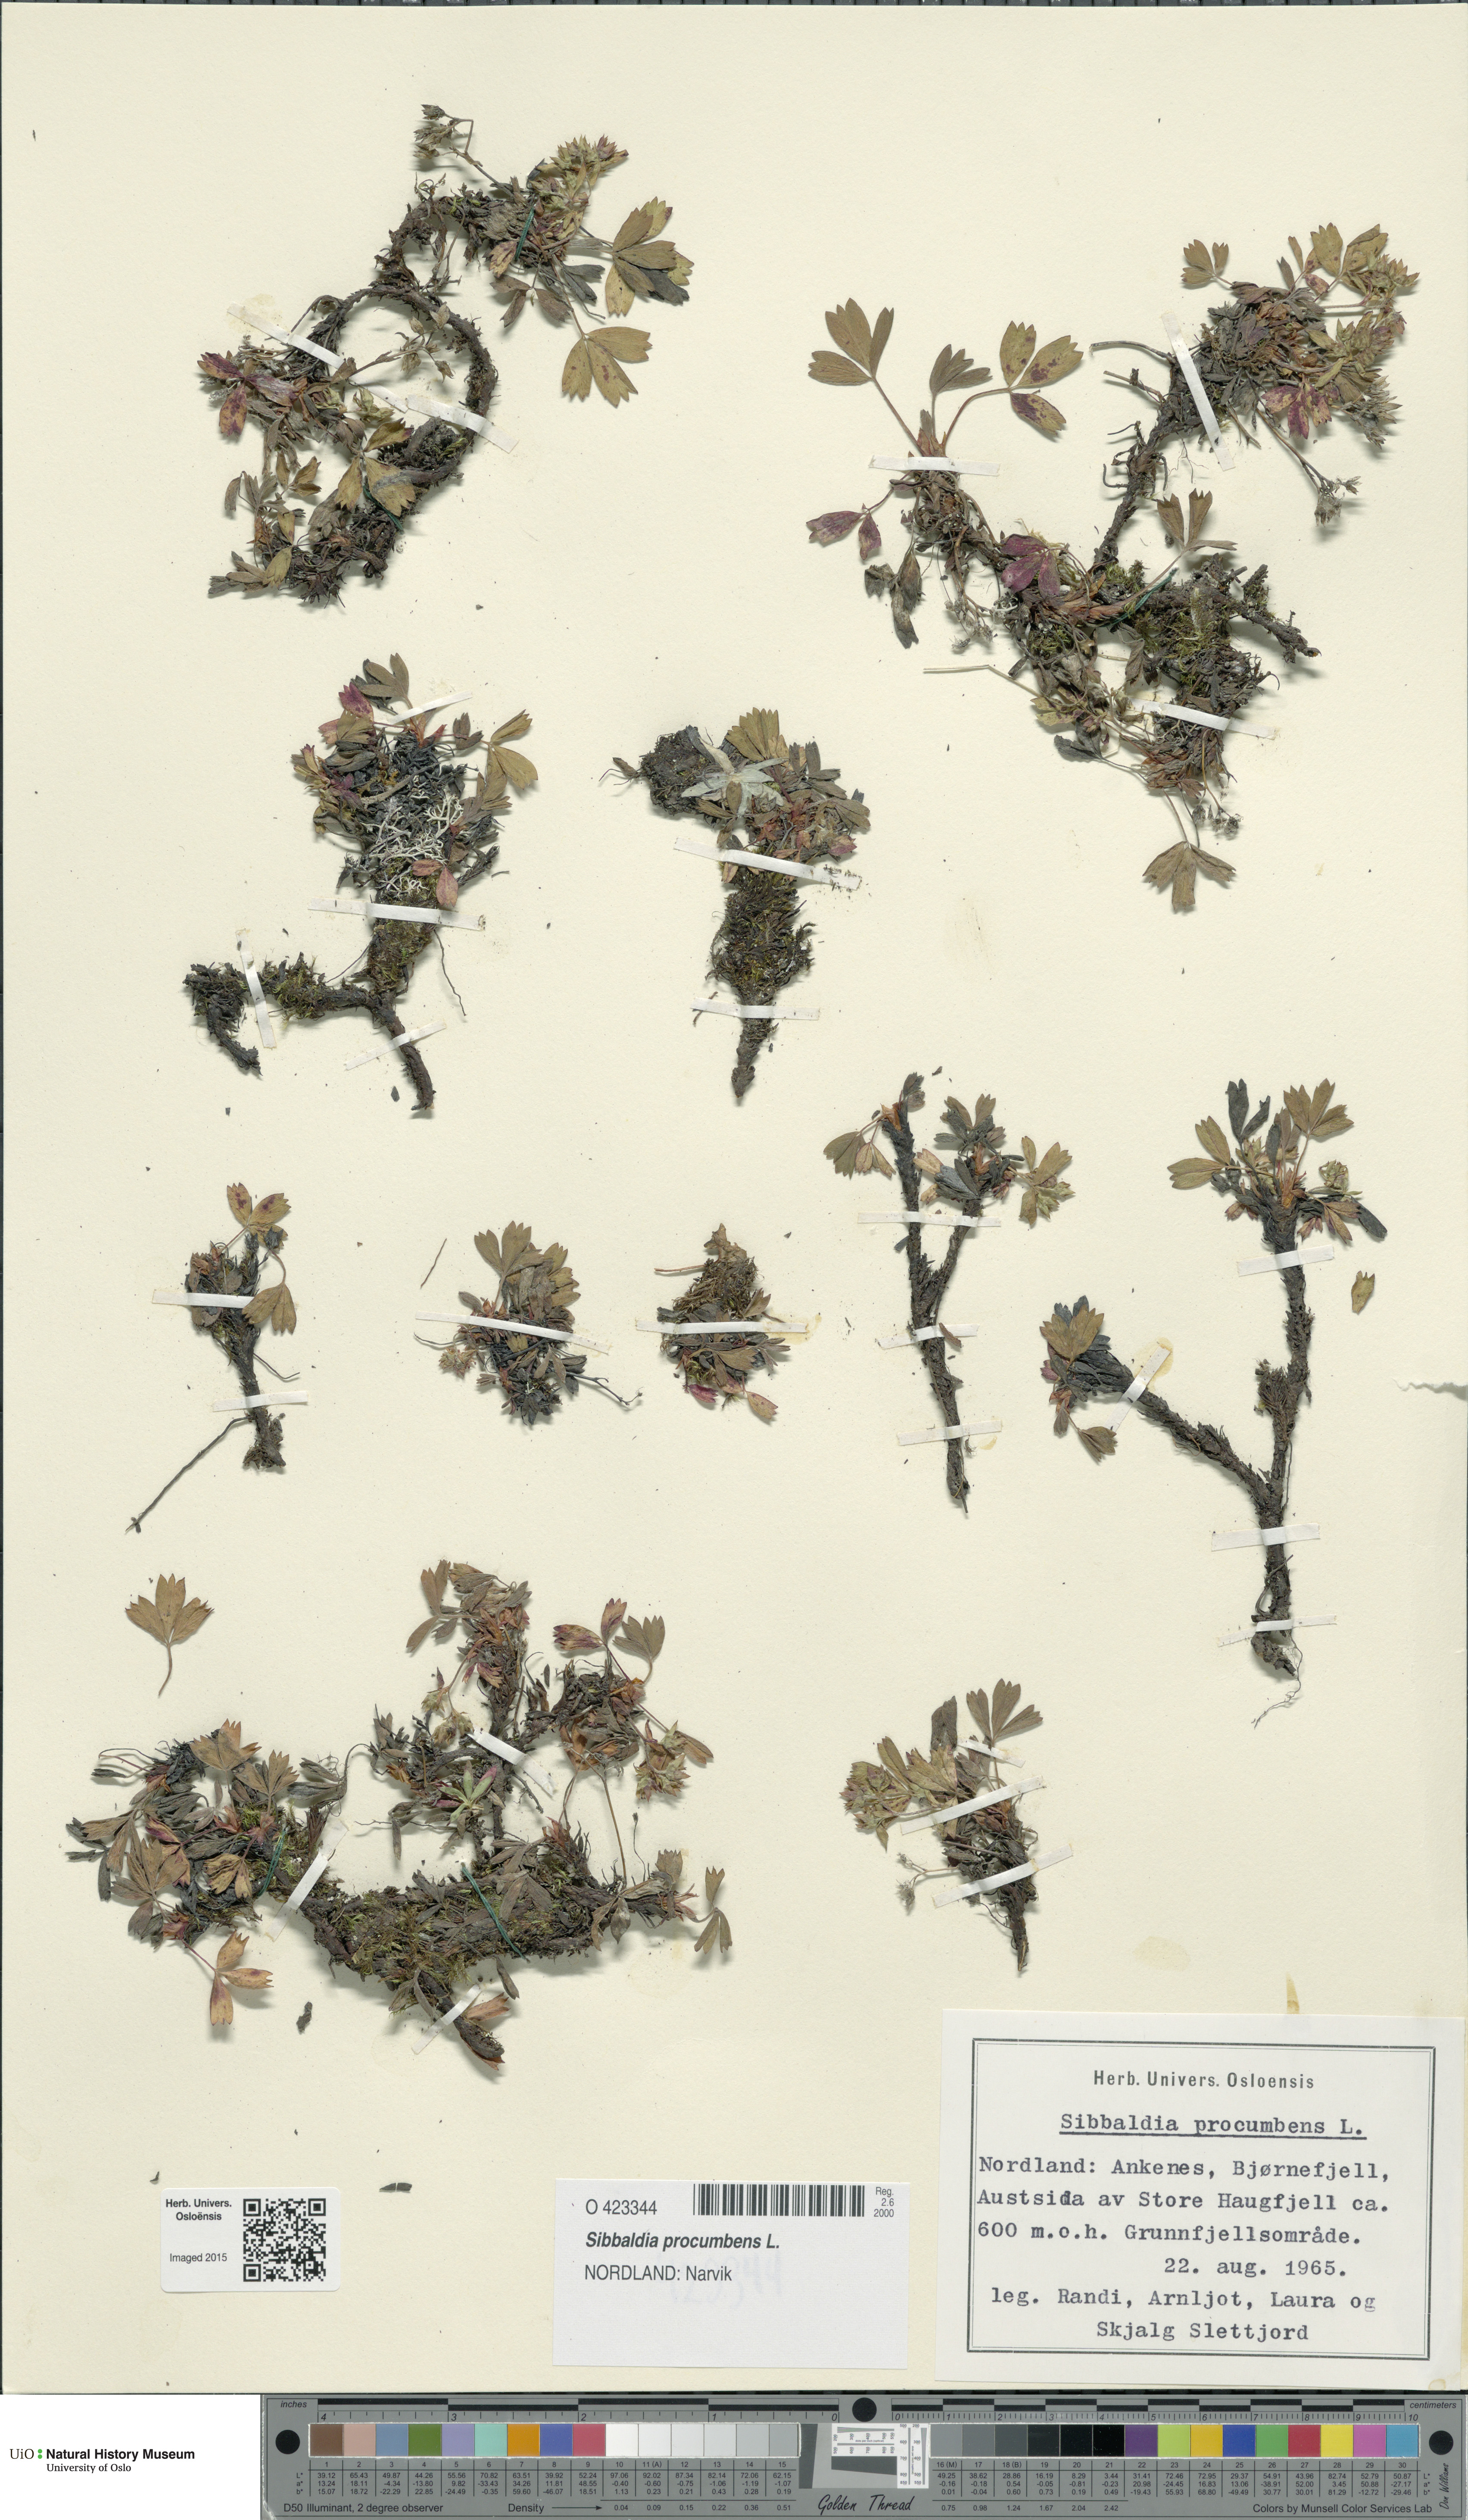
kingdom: Plantae
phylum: Tracheophyta
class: Magnoliopsida
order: Rosales
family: Rosaceae
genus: Sibbaldia
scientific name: Sibbaldia procumbens
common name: Creeping sibbaldia
